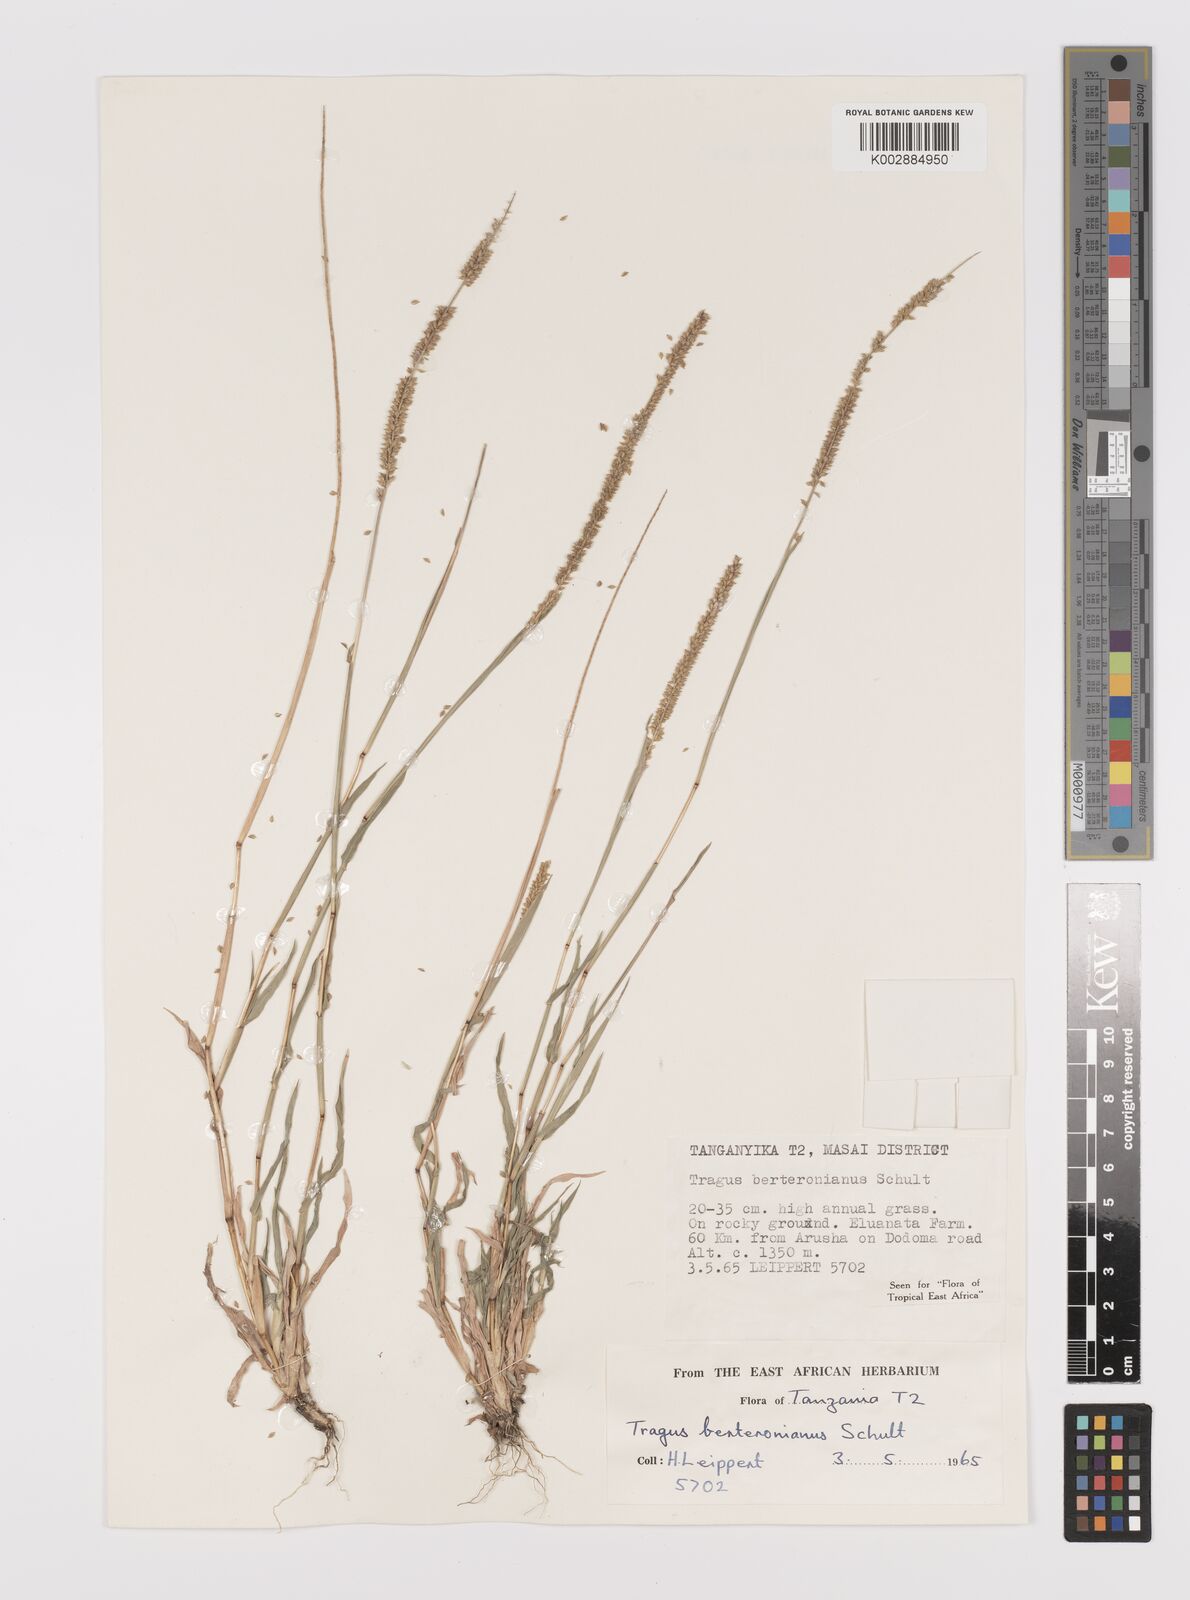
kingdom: Plantae
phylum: Tracheophyta
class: Liliopsida
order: Poales
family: Poaceae
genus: Tragus
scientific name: Tragus berteronianus
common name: African bur-grass
